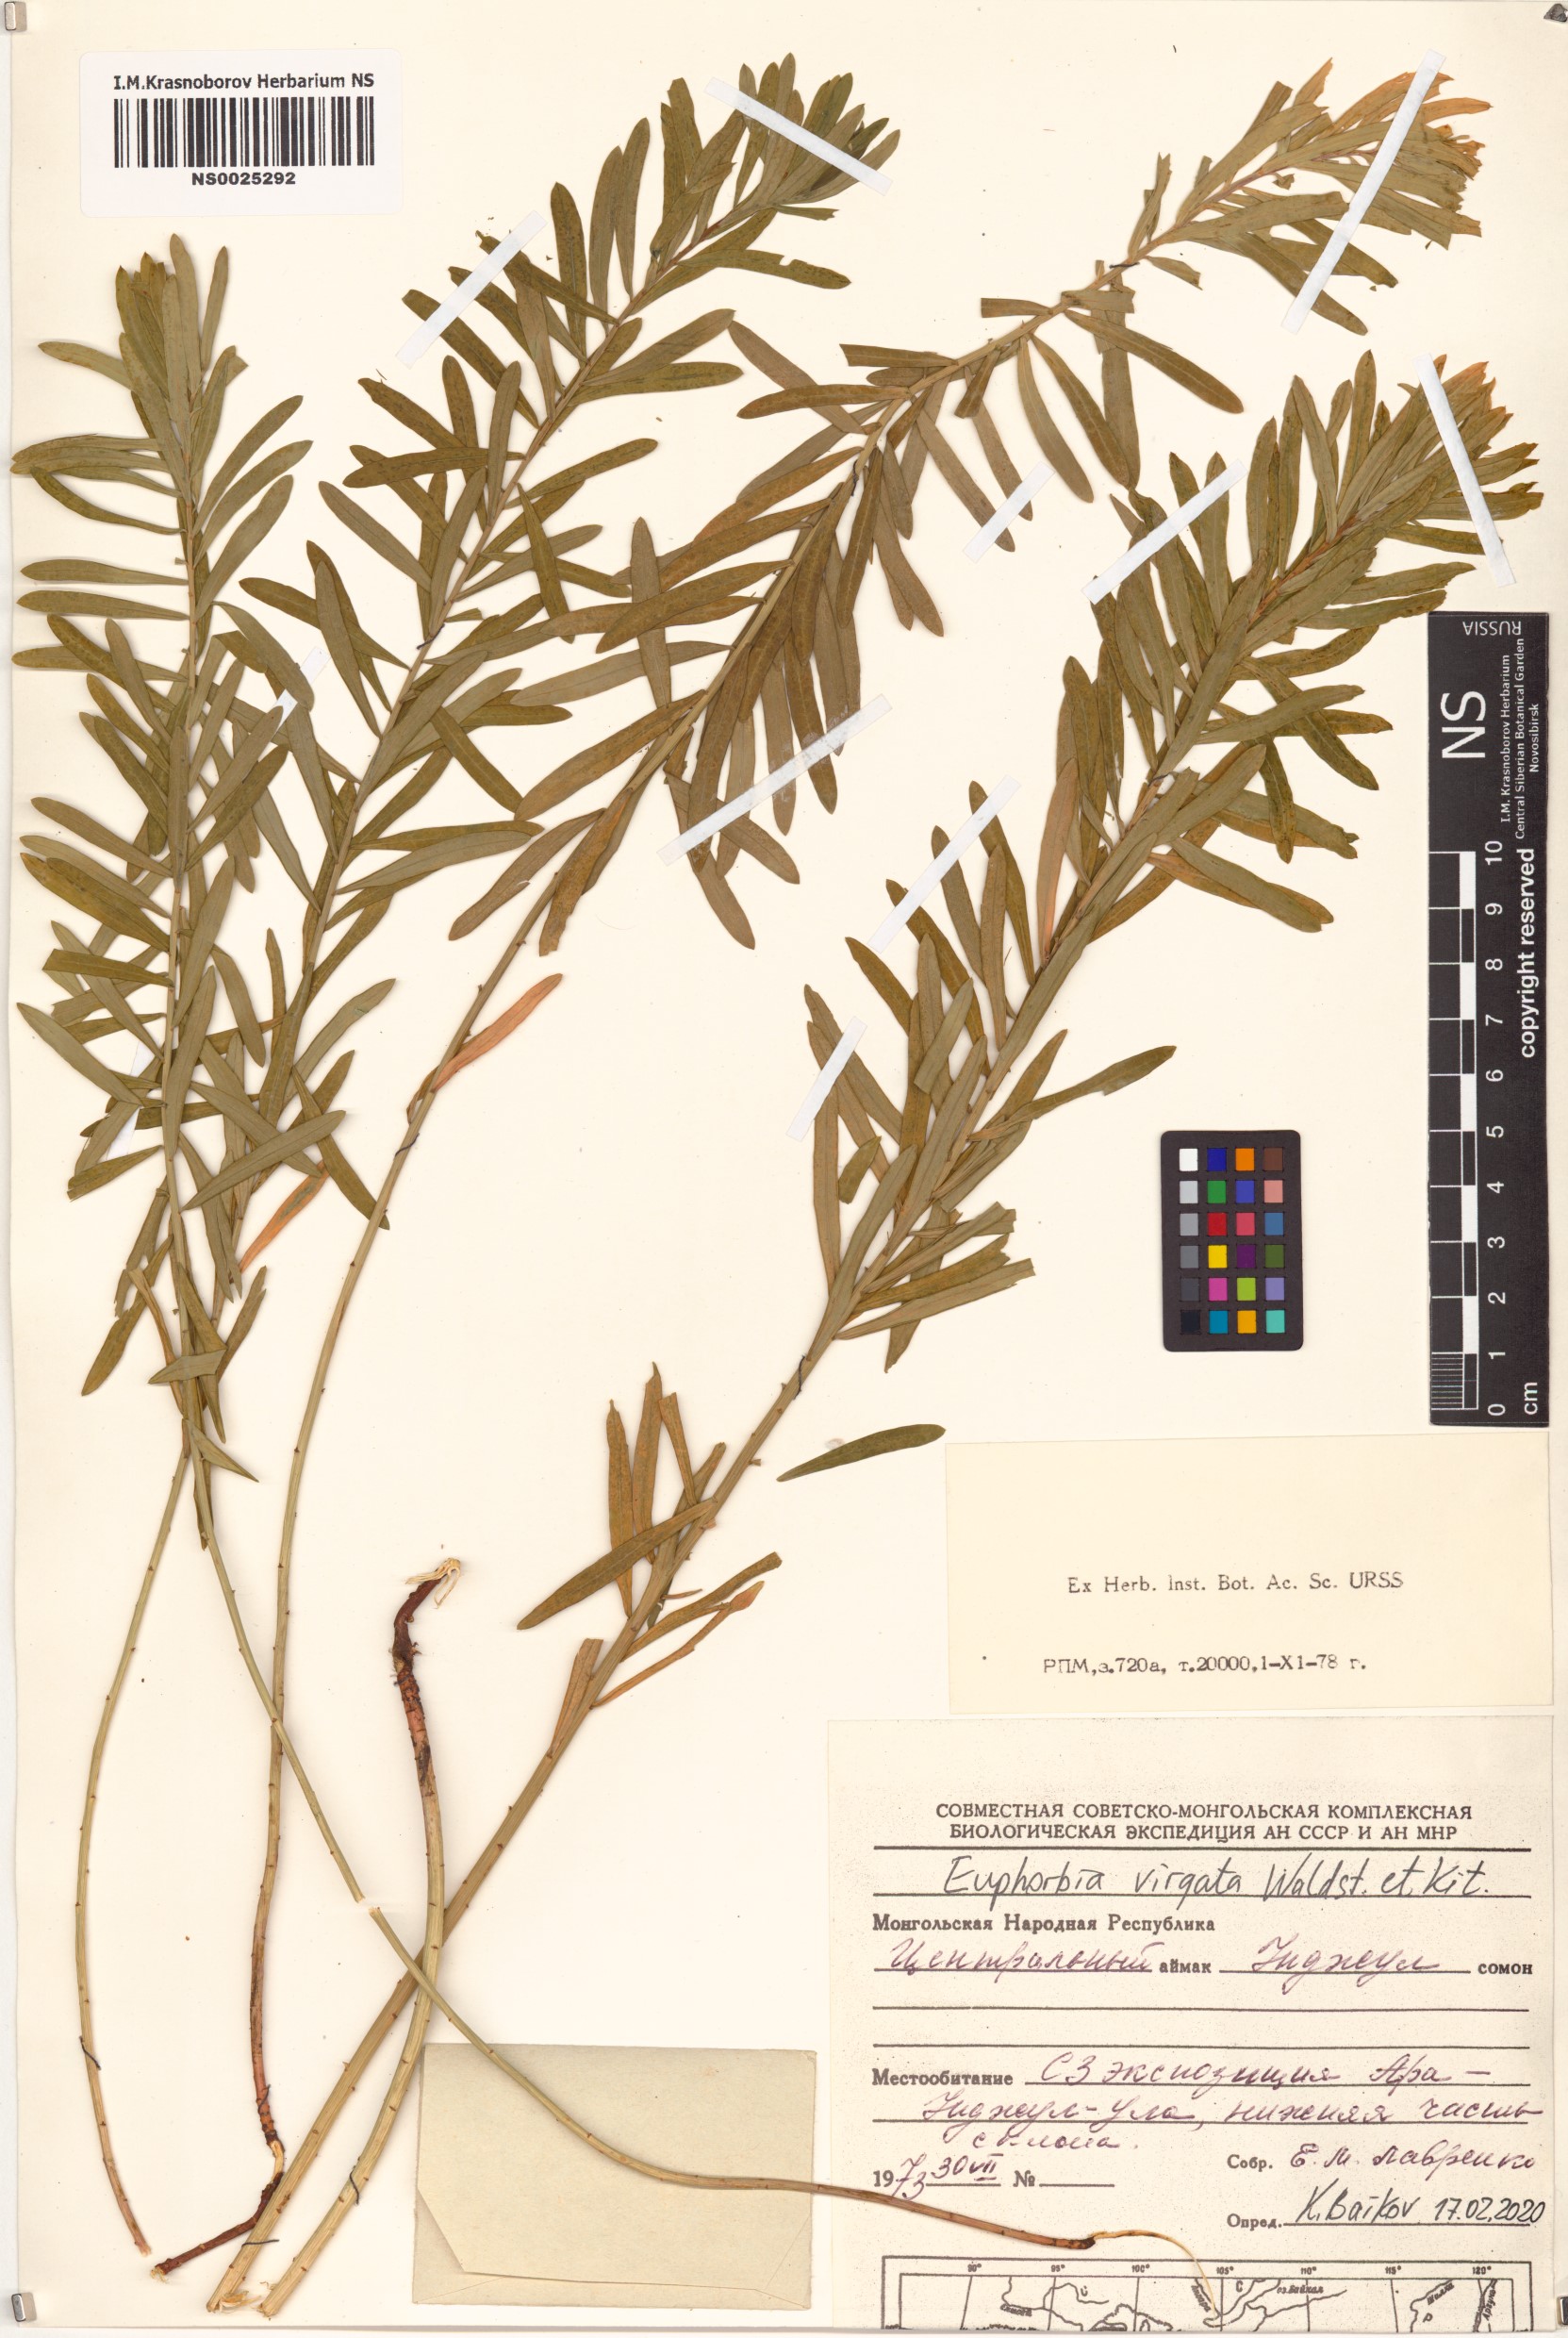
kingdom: Plantae
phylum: Tracheophyta
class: Magnoliopsida
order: Malpighiales
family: Euphorbiaceae
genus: Euphorbia
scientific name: Euphorbia virgata
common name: Leafy spurge
